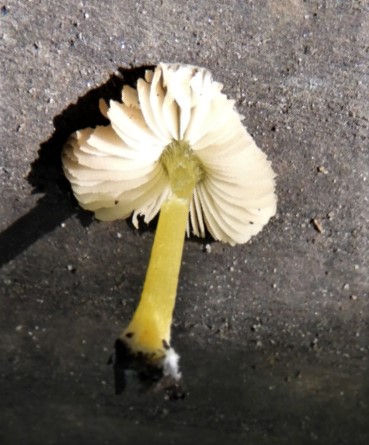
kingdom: Fungi
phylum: Basidiomycota
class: Agaricomycetes
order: Agaricales
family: Pluteaceae
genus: Pluteus
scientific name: Pluteus vellingae
